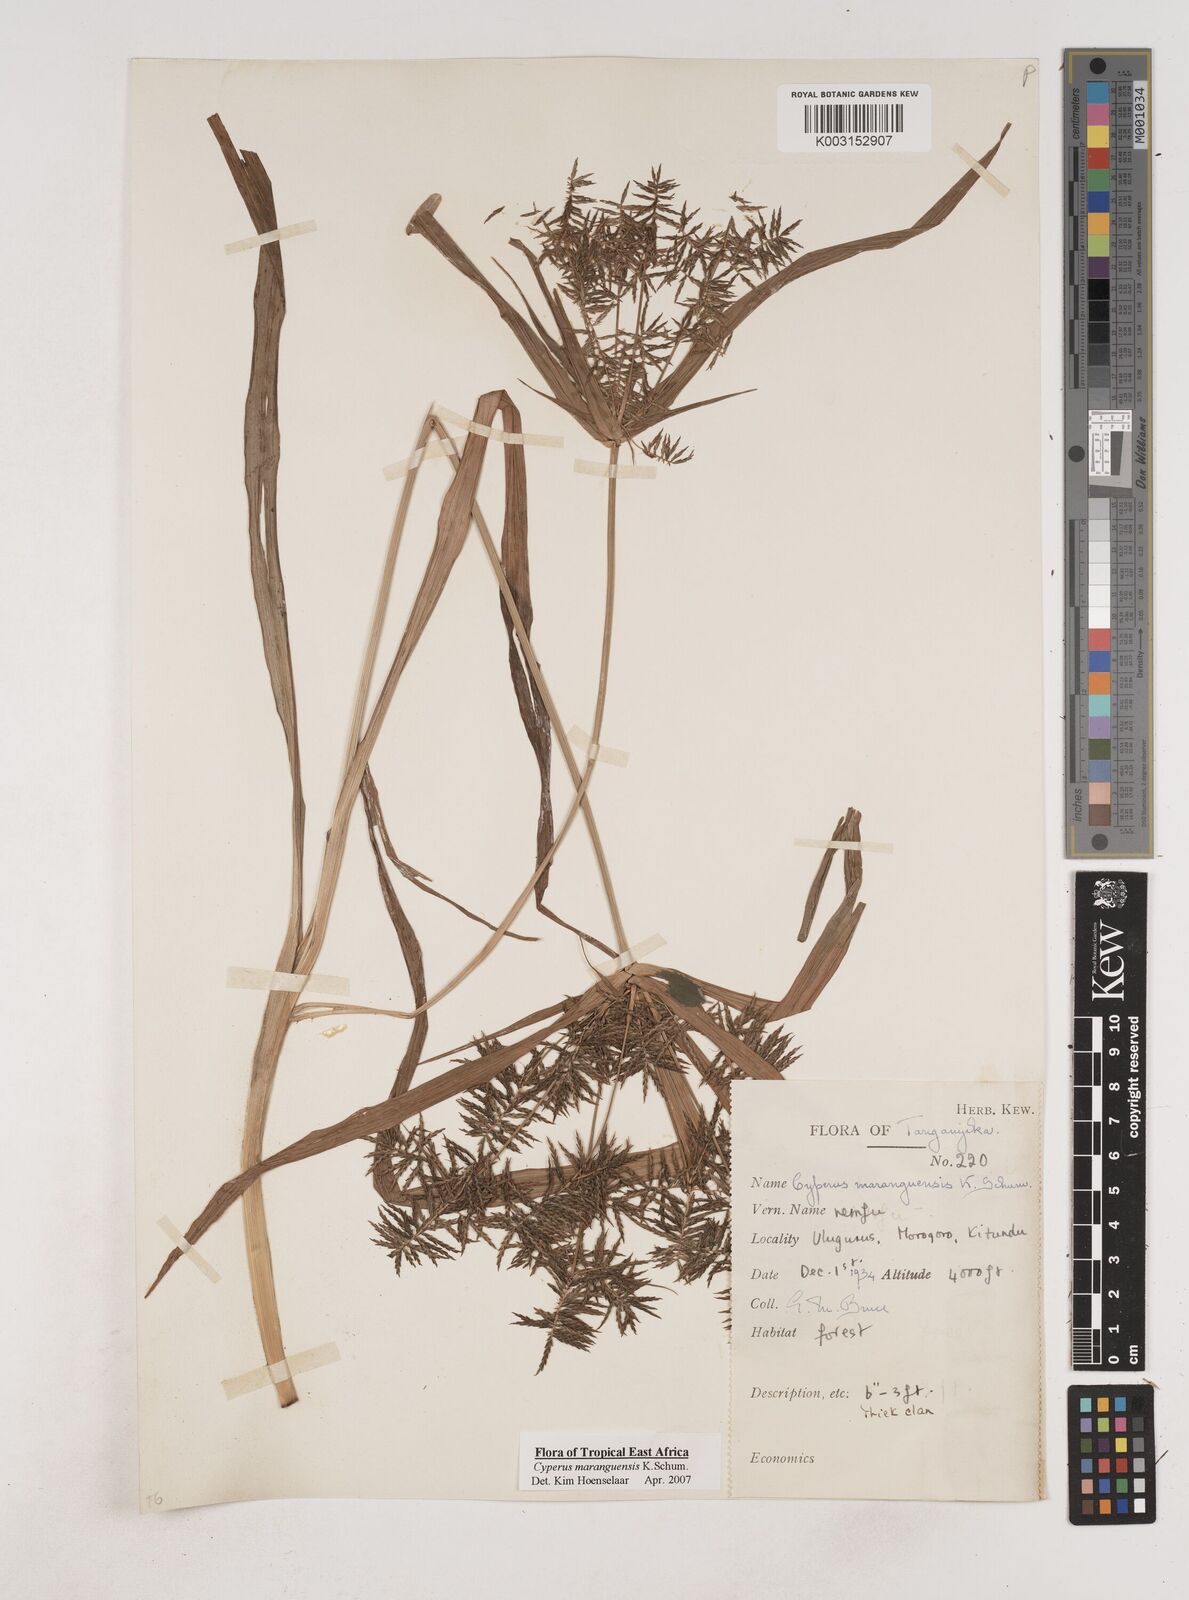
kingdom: Plantae
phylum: Tracheophyta
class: Liliopsida
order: Poales
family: Cyperaceae
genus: Cyperus
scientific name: Cyperus maranguensis
